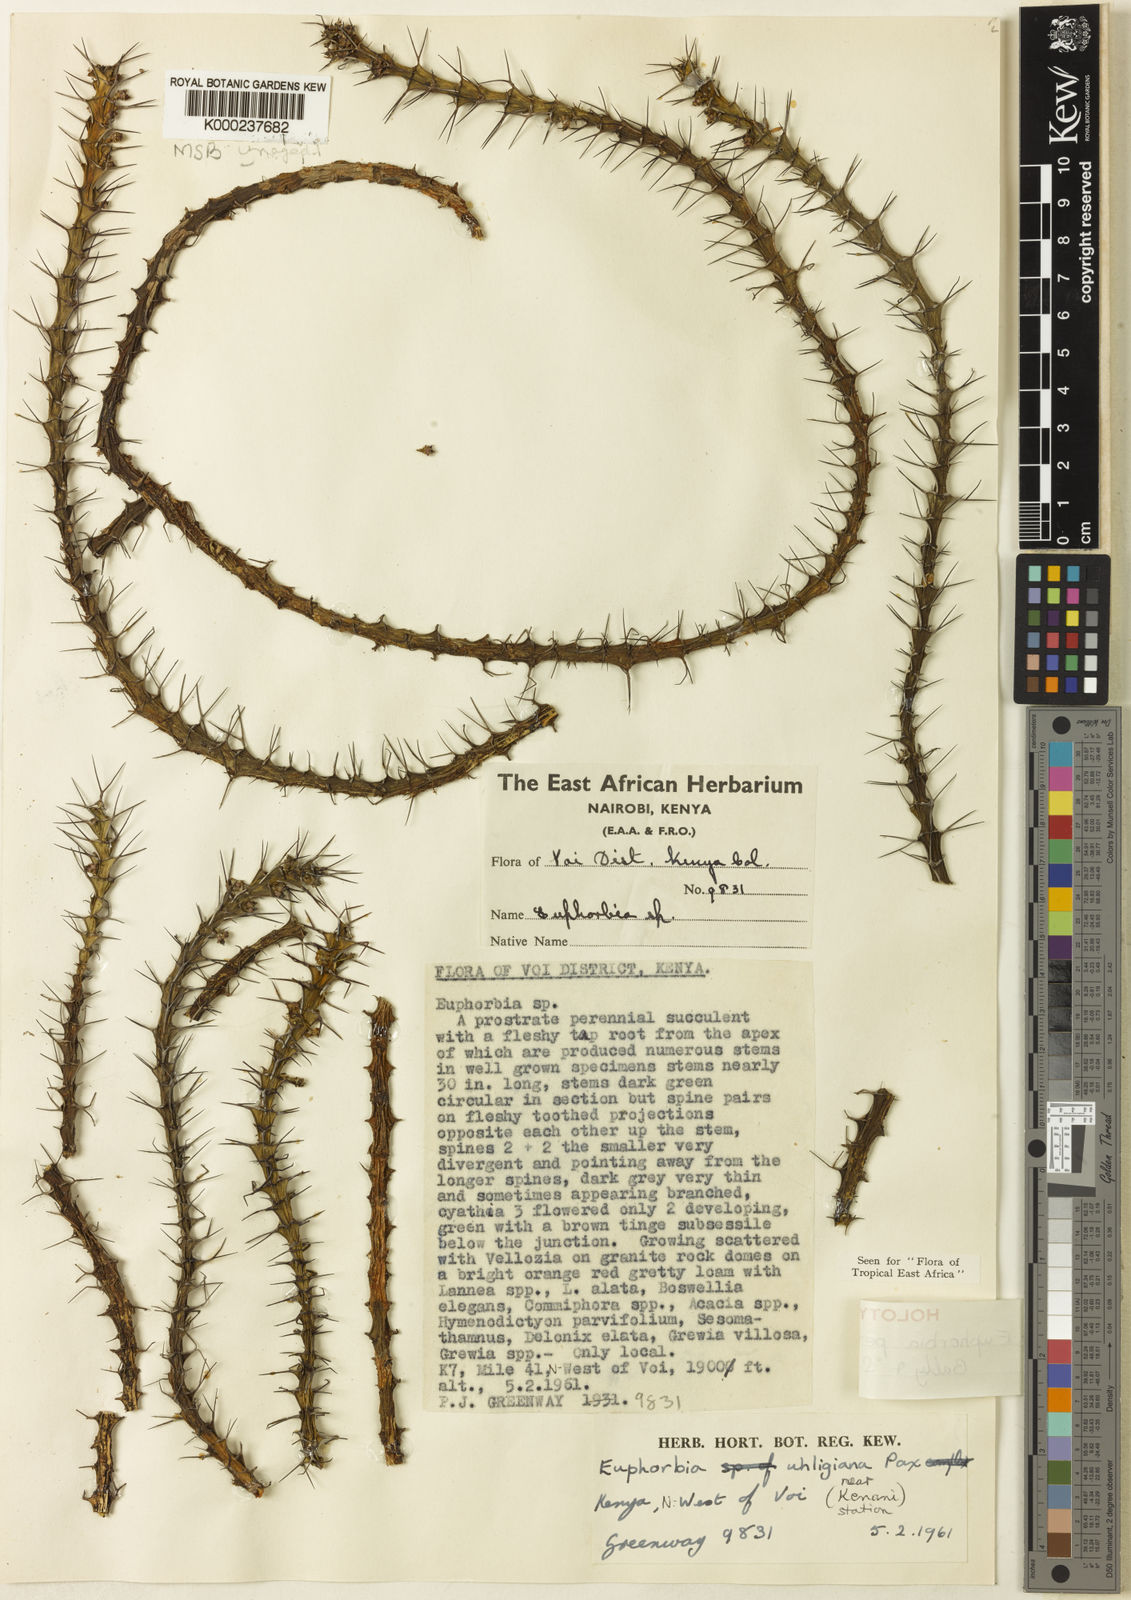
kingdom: Plantae
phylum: Tracheophyta
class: Magnoliopsida
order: Malpighiales
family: Euphorbiaceae
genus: Euphorbia
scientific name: Euphorbia petricola
